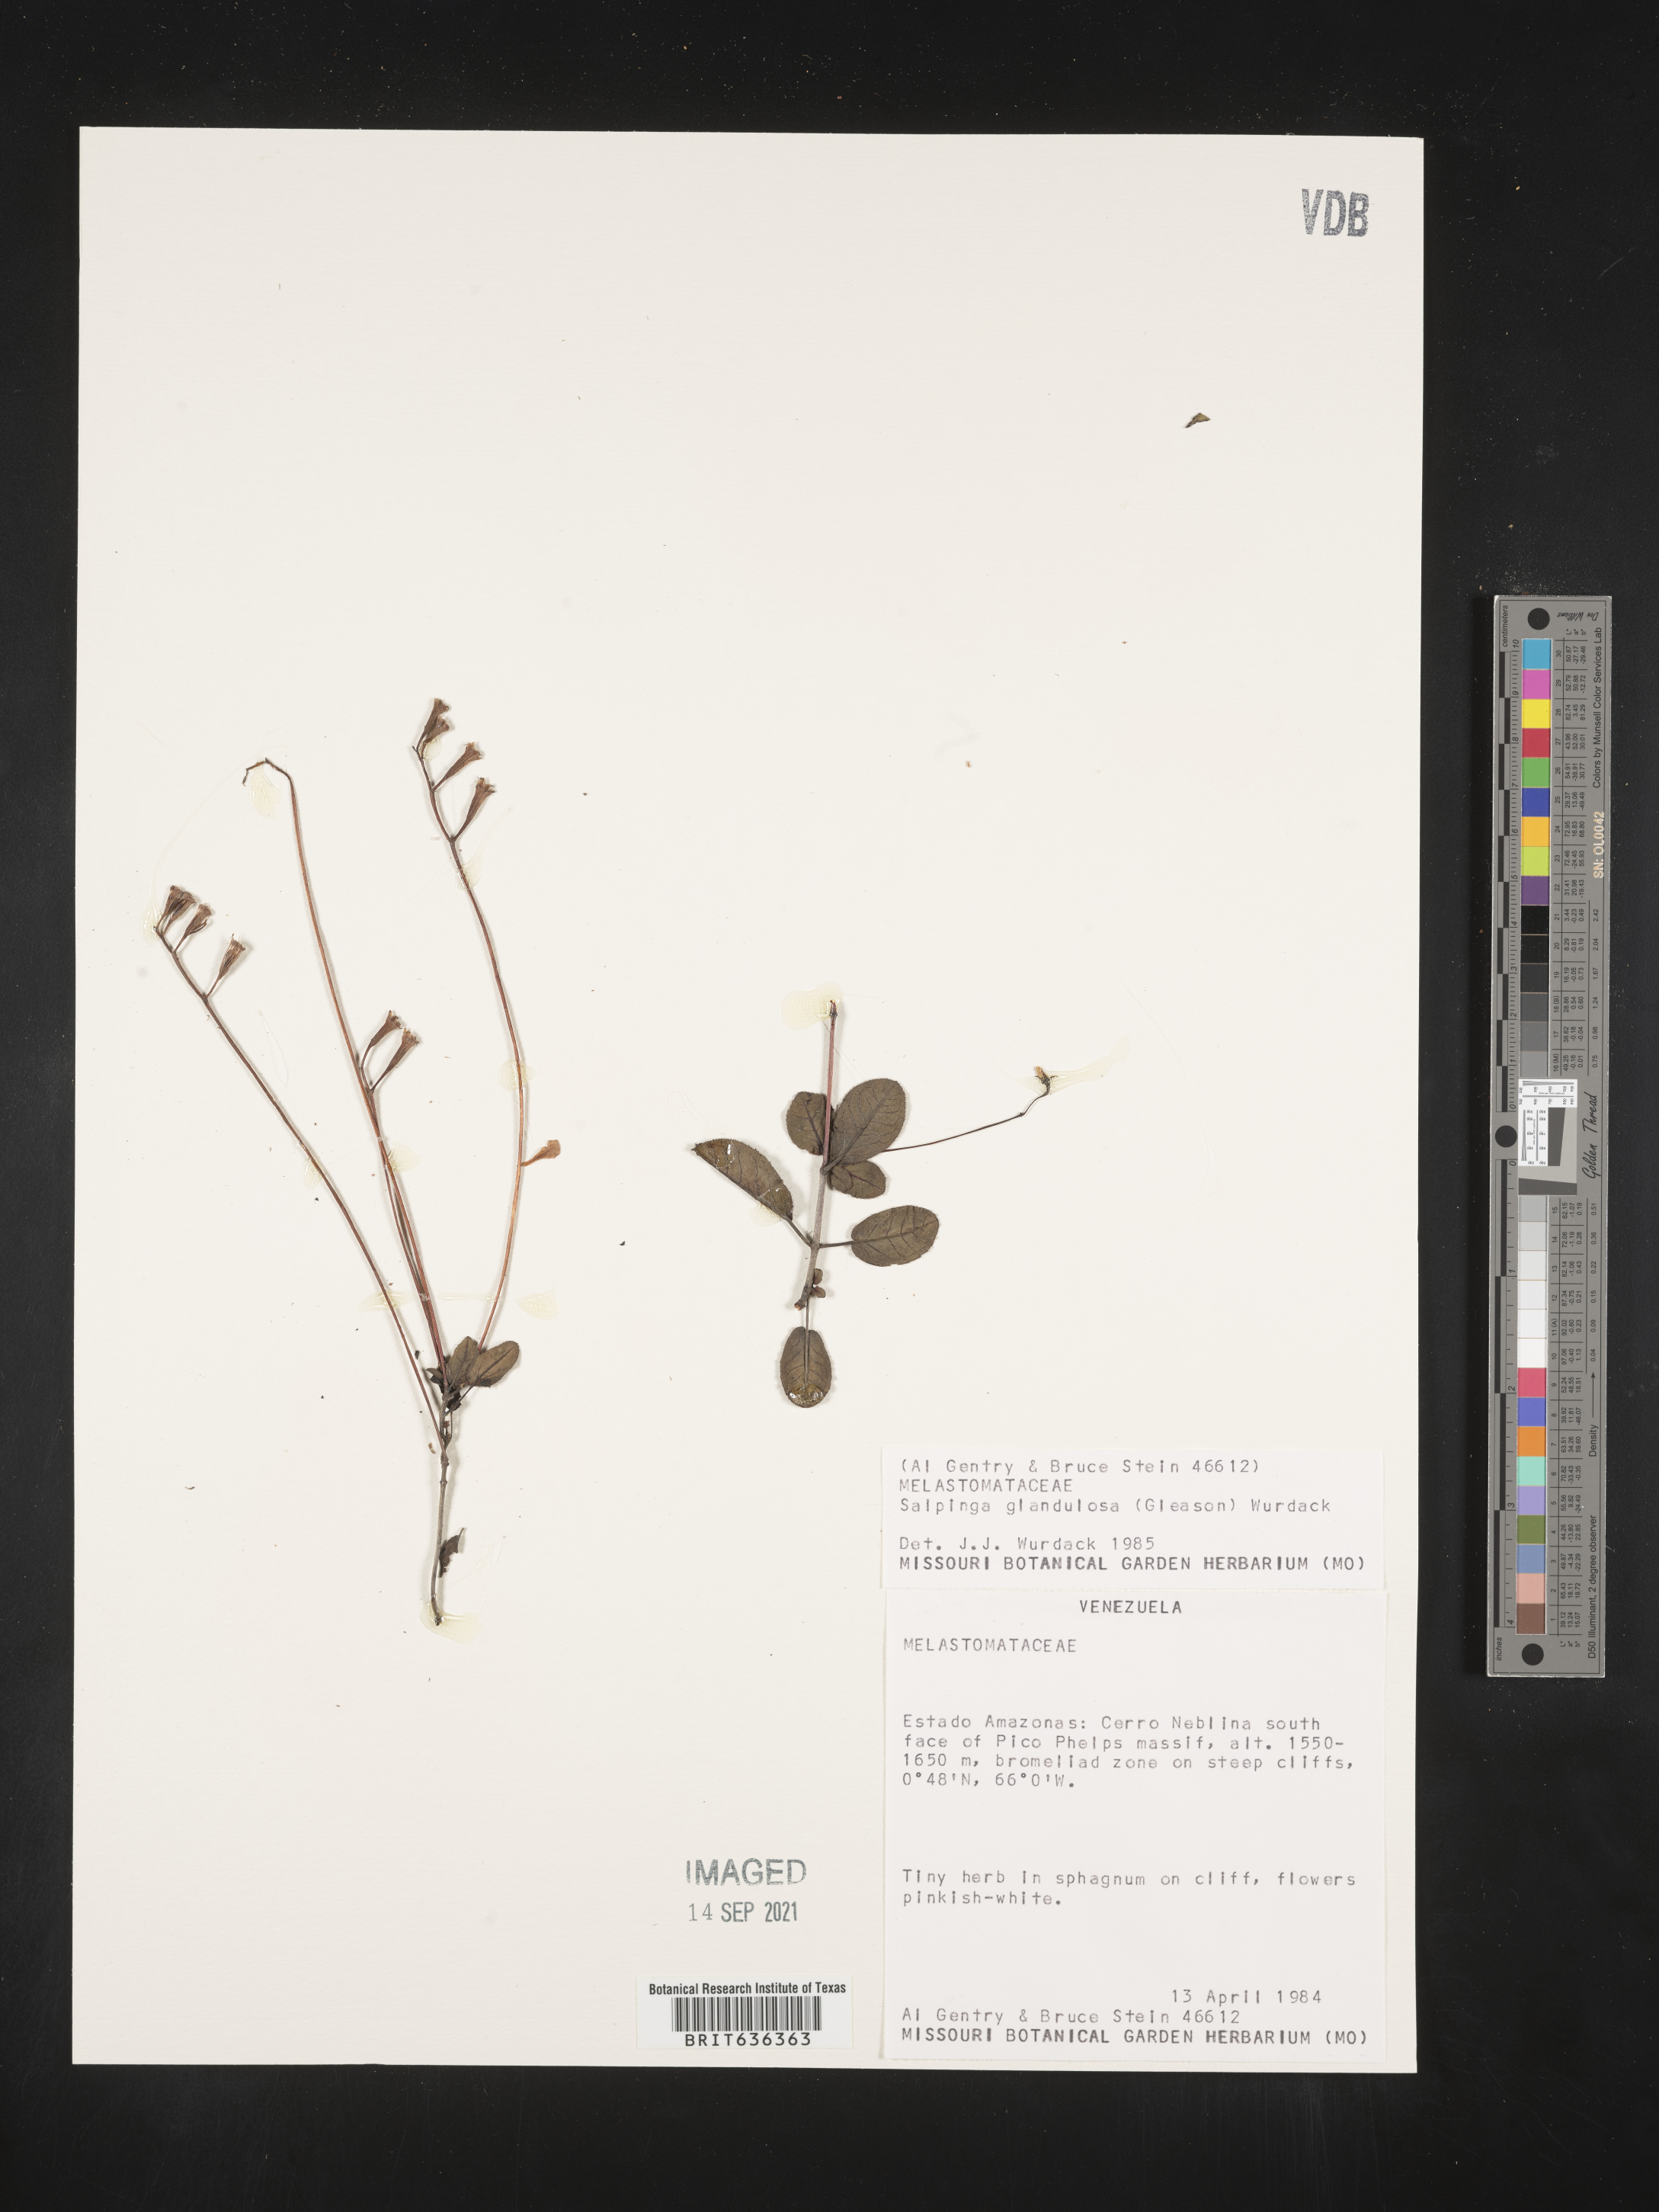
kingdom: Plantae
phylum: Tracheophyta
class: Magnoliopsida
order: Myrtales
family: Melastomataceae
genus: Salpinga
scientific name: Salpinga
